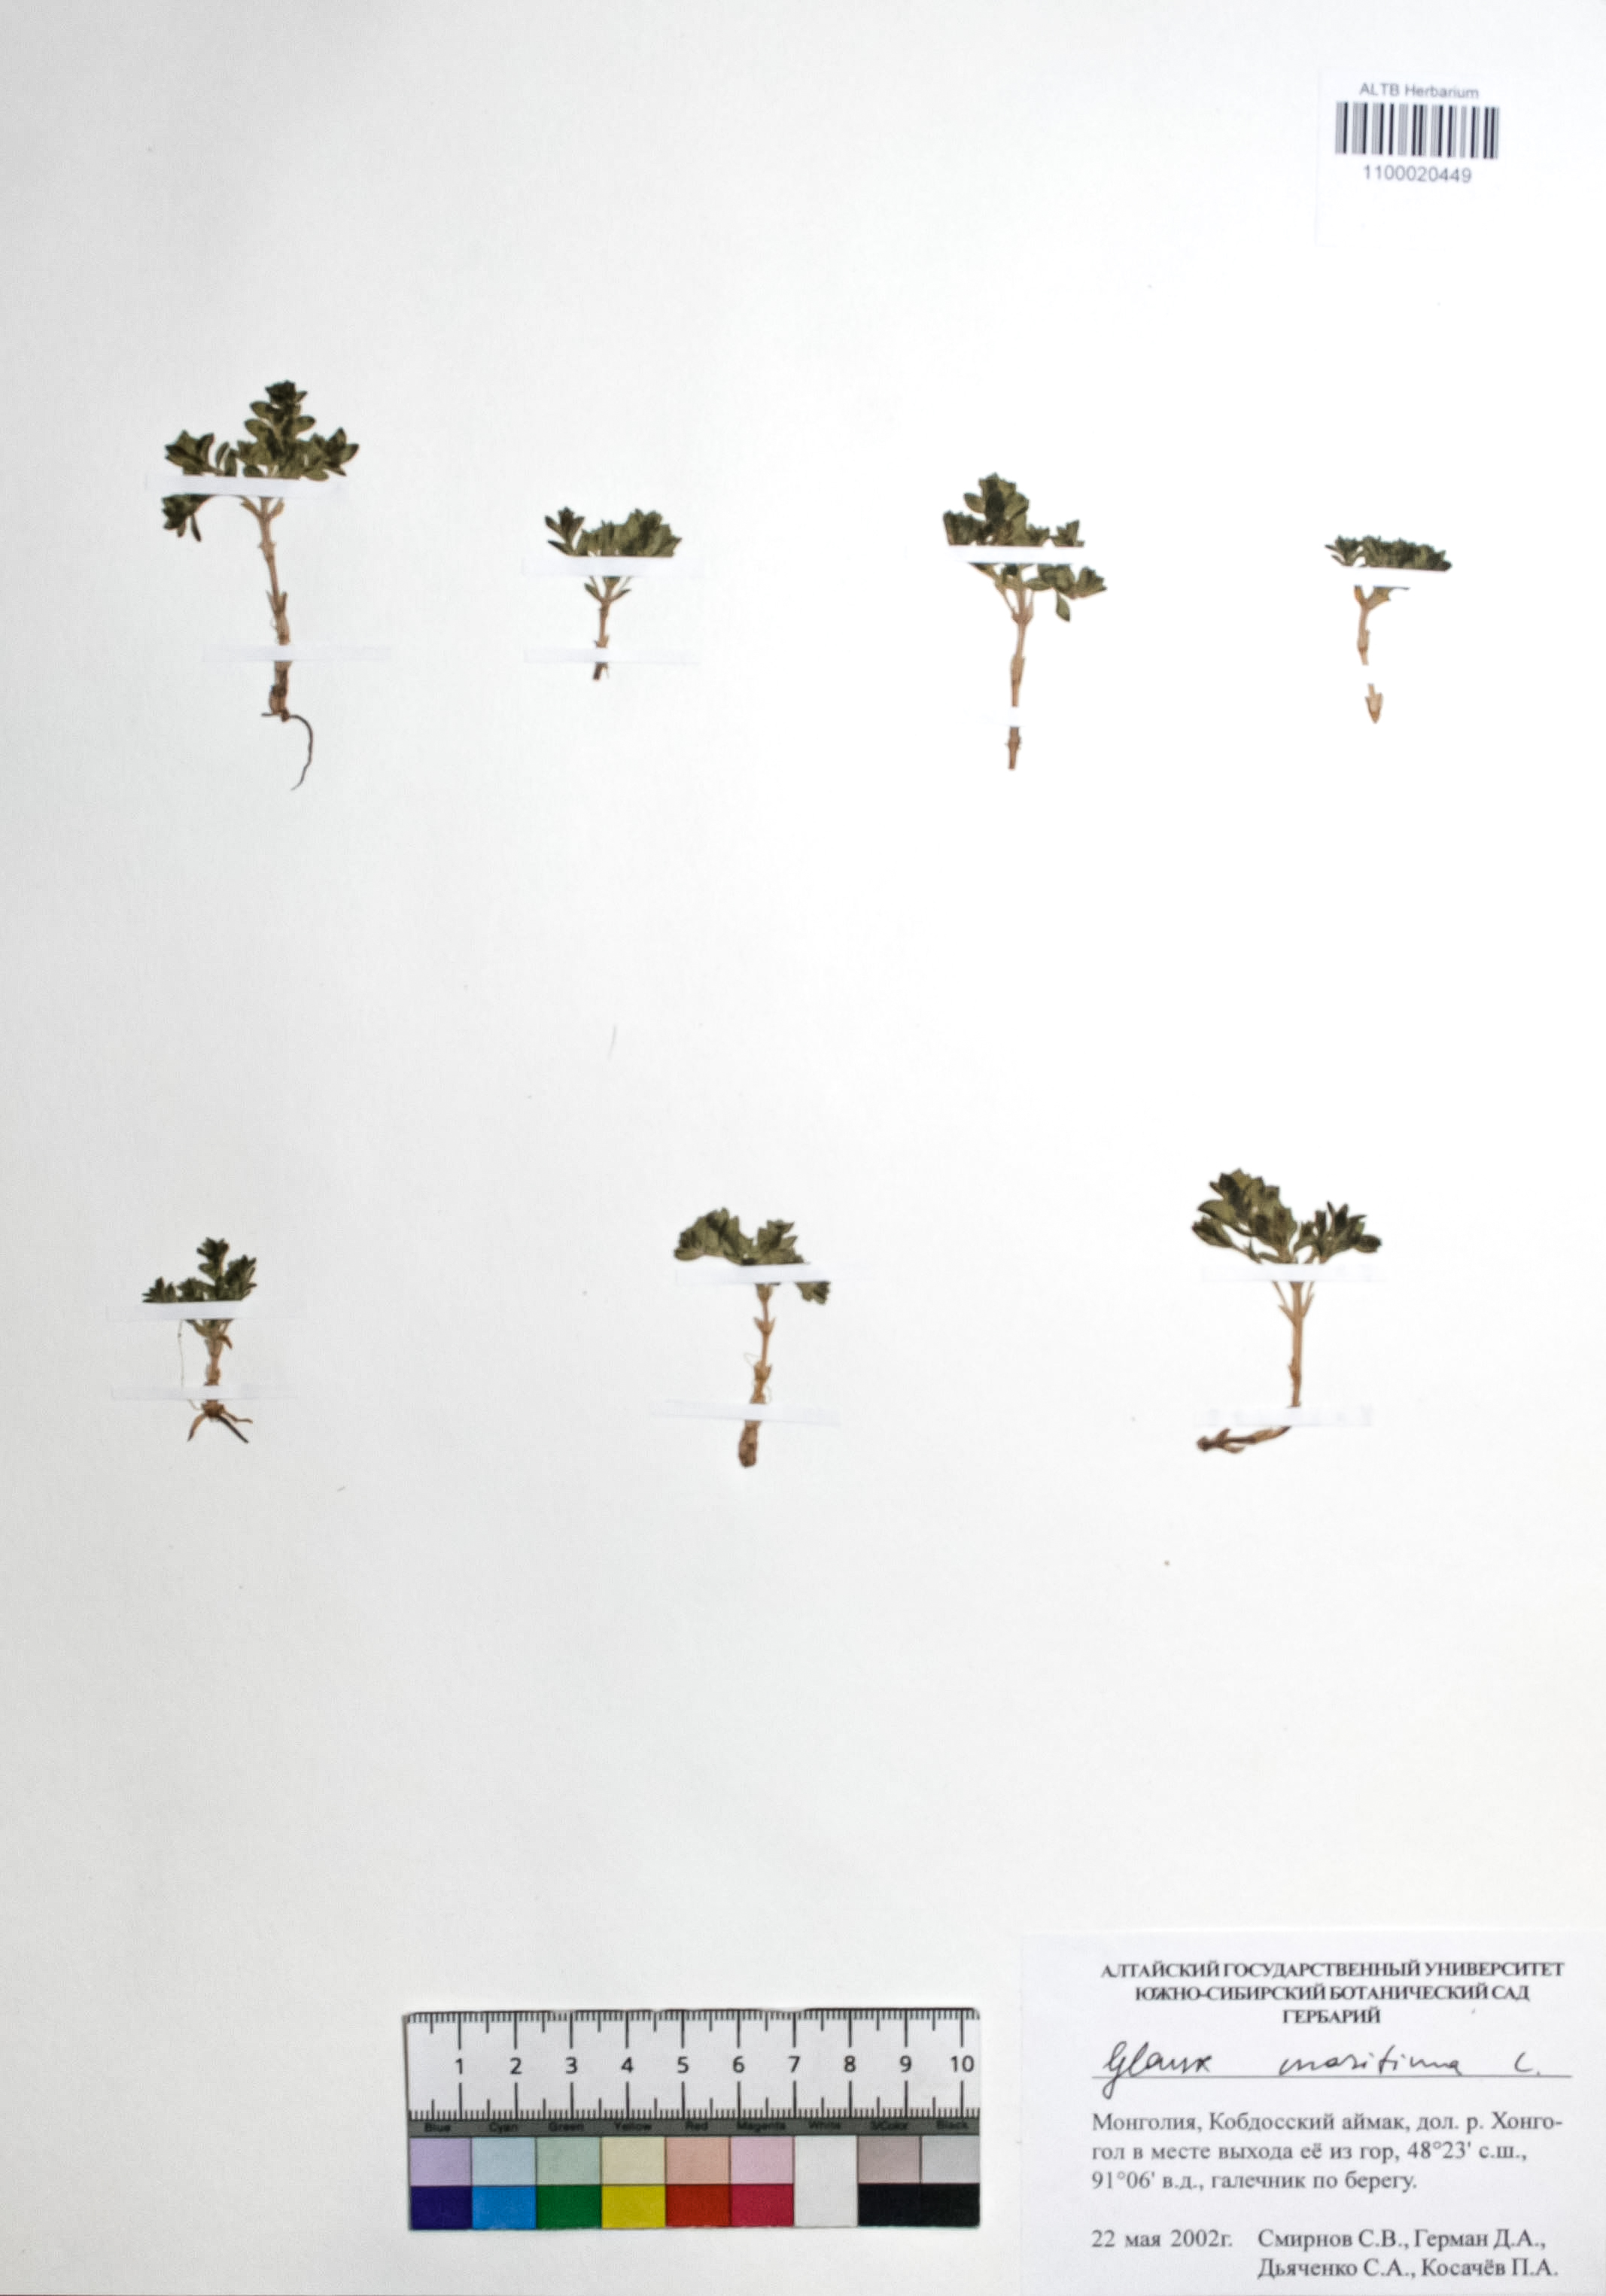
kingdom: Plantae
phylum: Tracheophyta
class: Magnoliopsida
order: Ericales
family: Primulaceae
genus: Lysimachia
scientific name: Lysimachia maritima
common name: Sea milkwort
